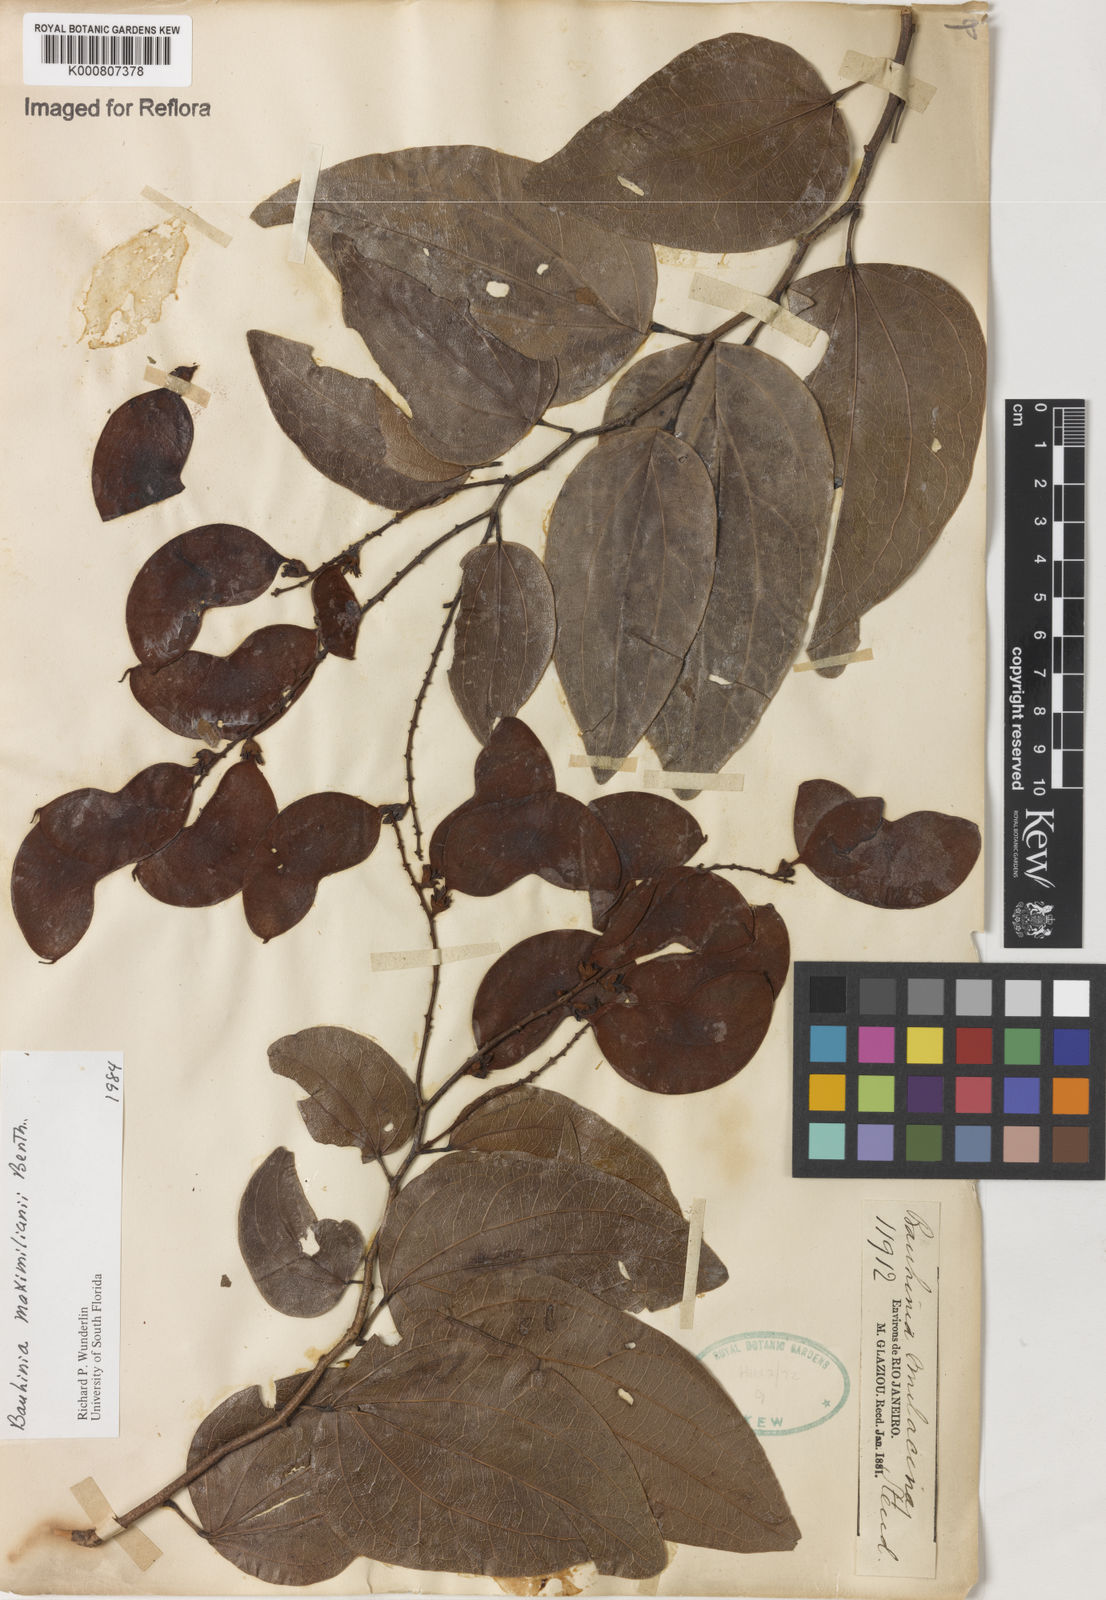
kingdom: Plantae
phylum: Tracheophyta
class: Magnoliopsida
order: Fabales
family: Fabaceae
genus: Schnella
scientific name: Schnella maximiliani
